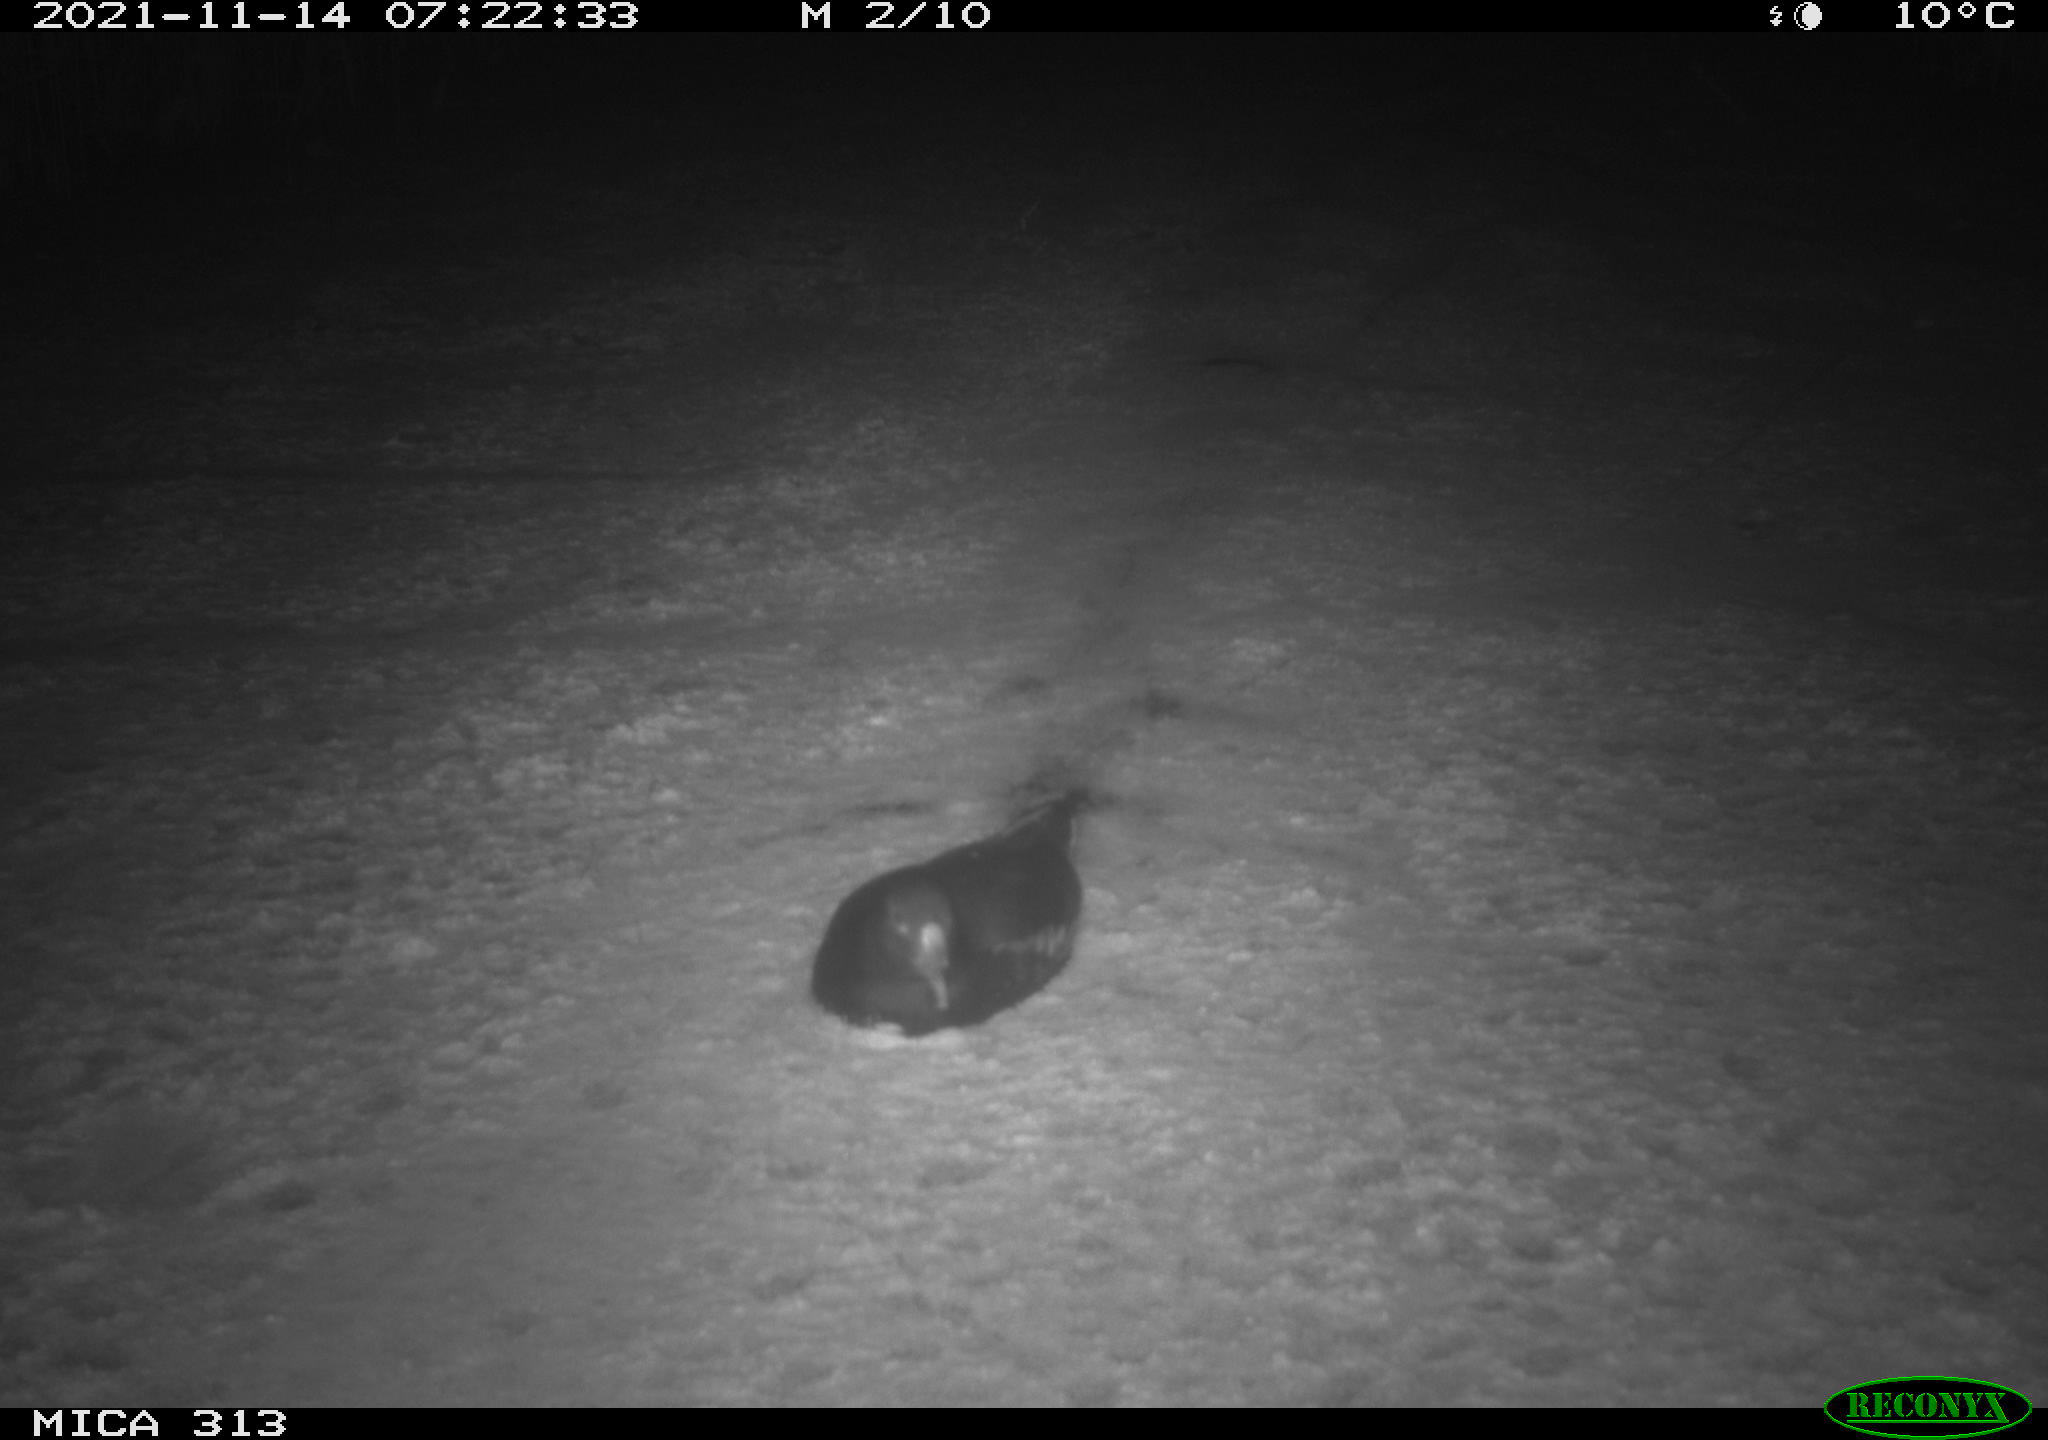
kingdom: Animalia
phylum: Chordata
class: Aves
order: Gruiformes
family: Rallidae
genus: Fulica
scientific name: Fulica atra
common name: Eurasian coot
